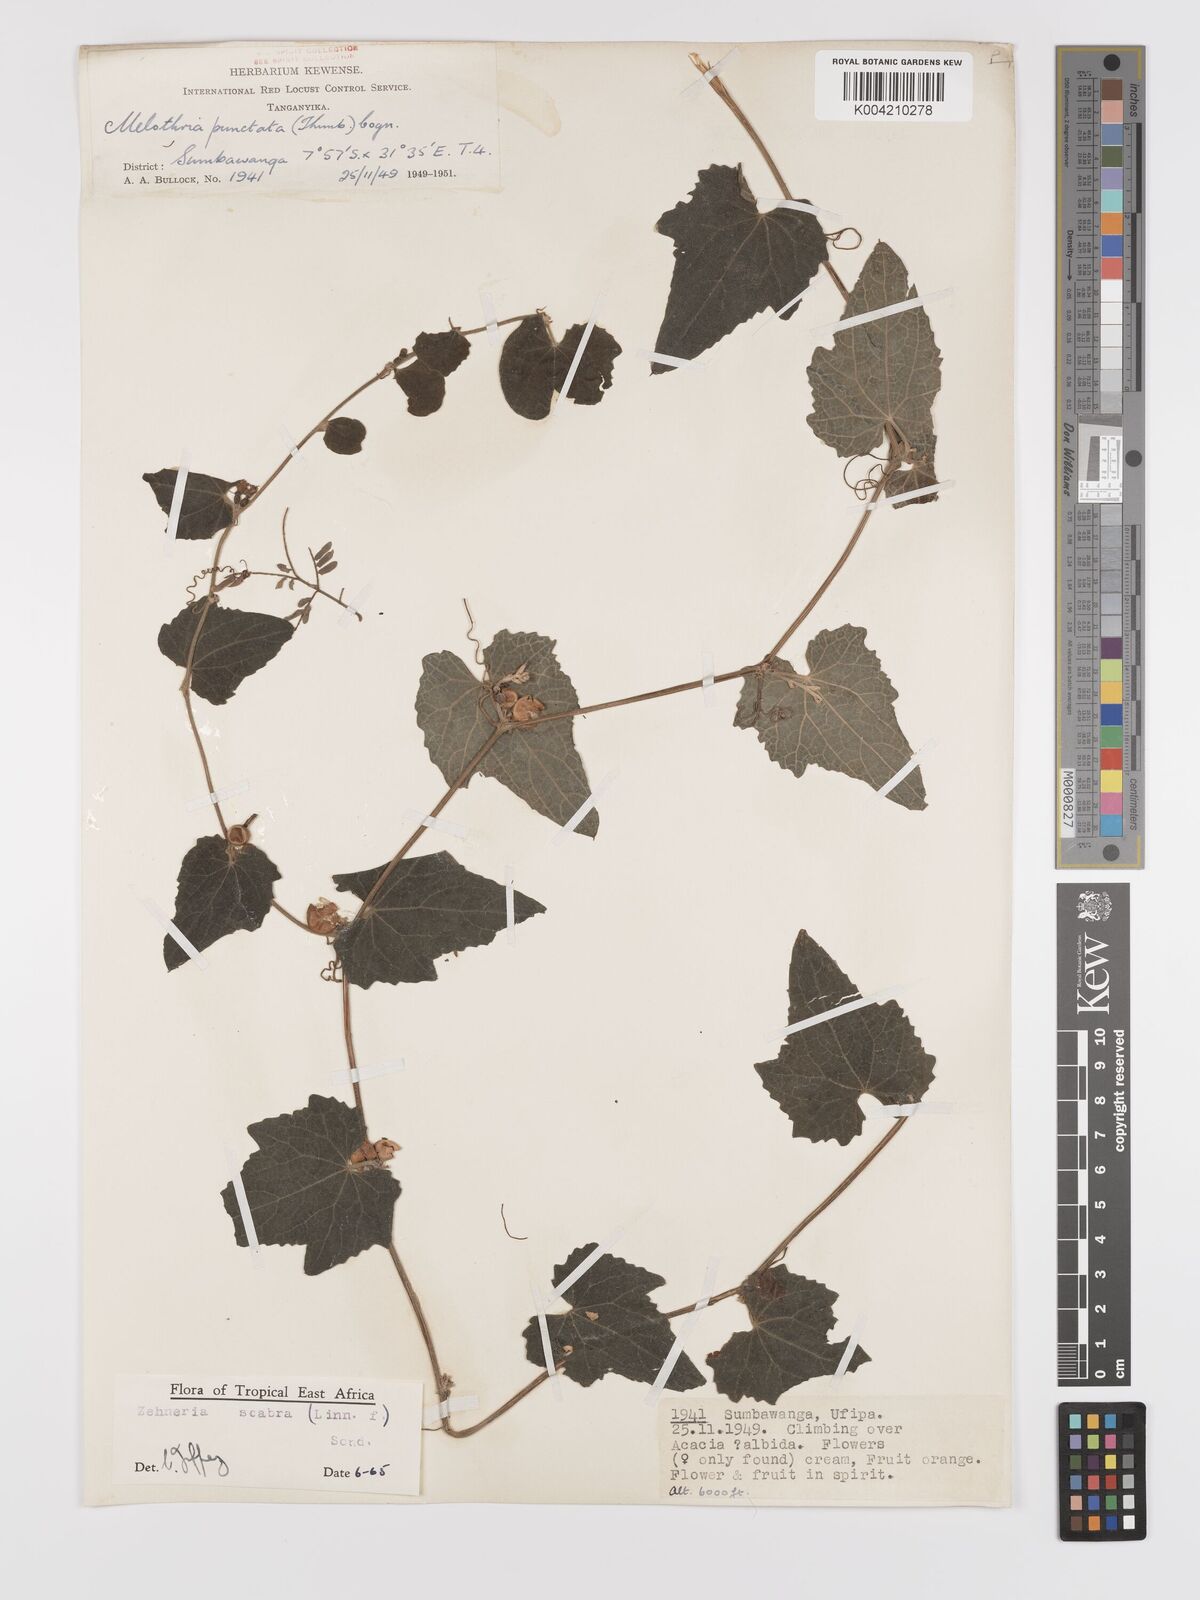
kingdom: Plantae
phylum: Tracheophyta
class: Magnoliopsida
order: Cucurbitales
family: Cucurbitaceae
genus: Zehneria
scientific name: Zehneria scabra
